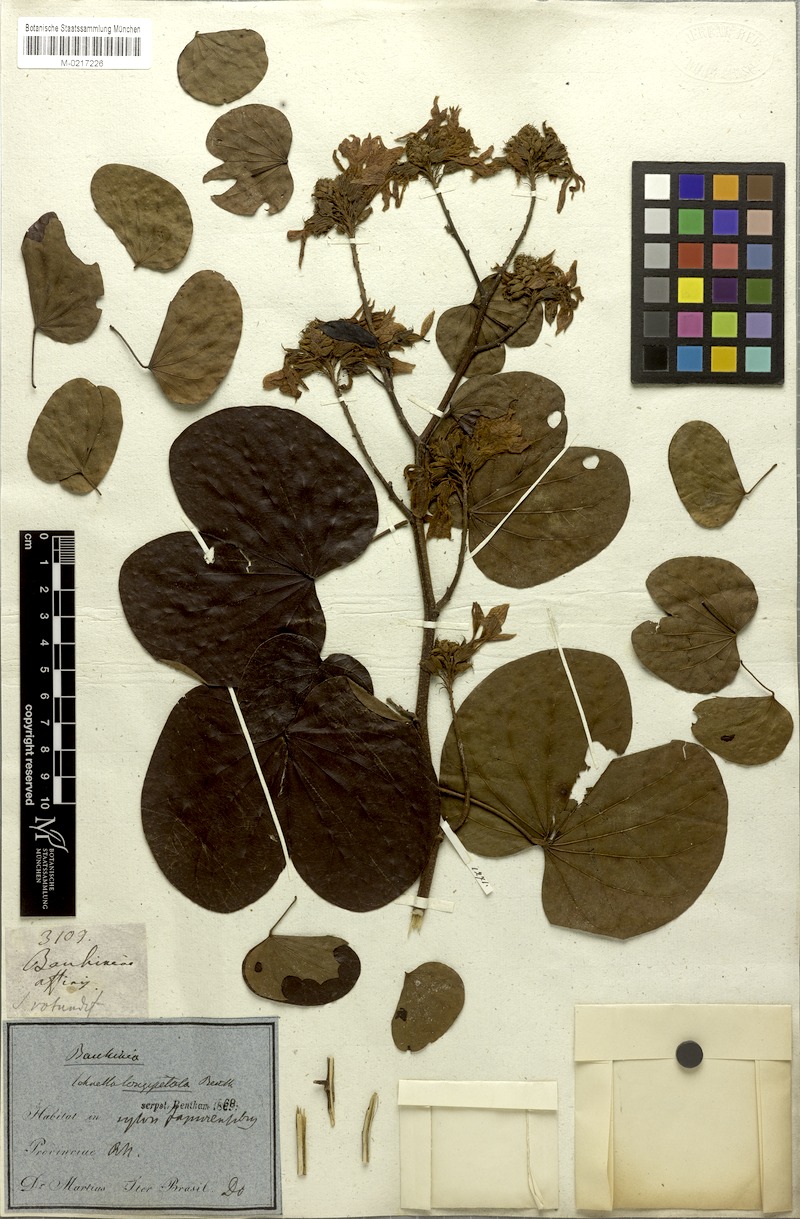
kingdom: Plantae
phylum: Tracheophyta
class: Magnoliopsida
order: Fabales
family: Fabaceae
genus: Schnella
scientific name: Schnella
